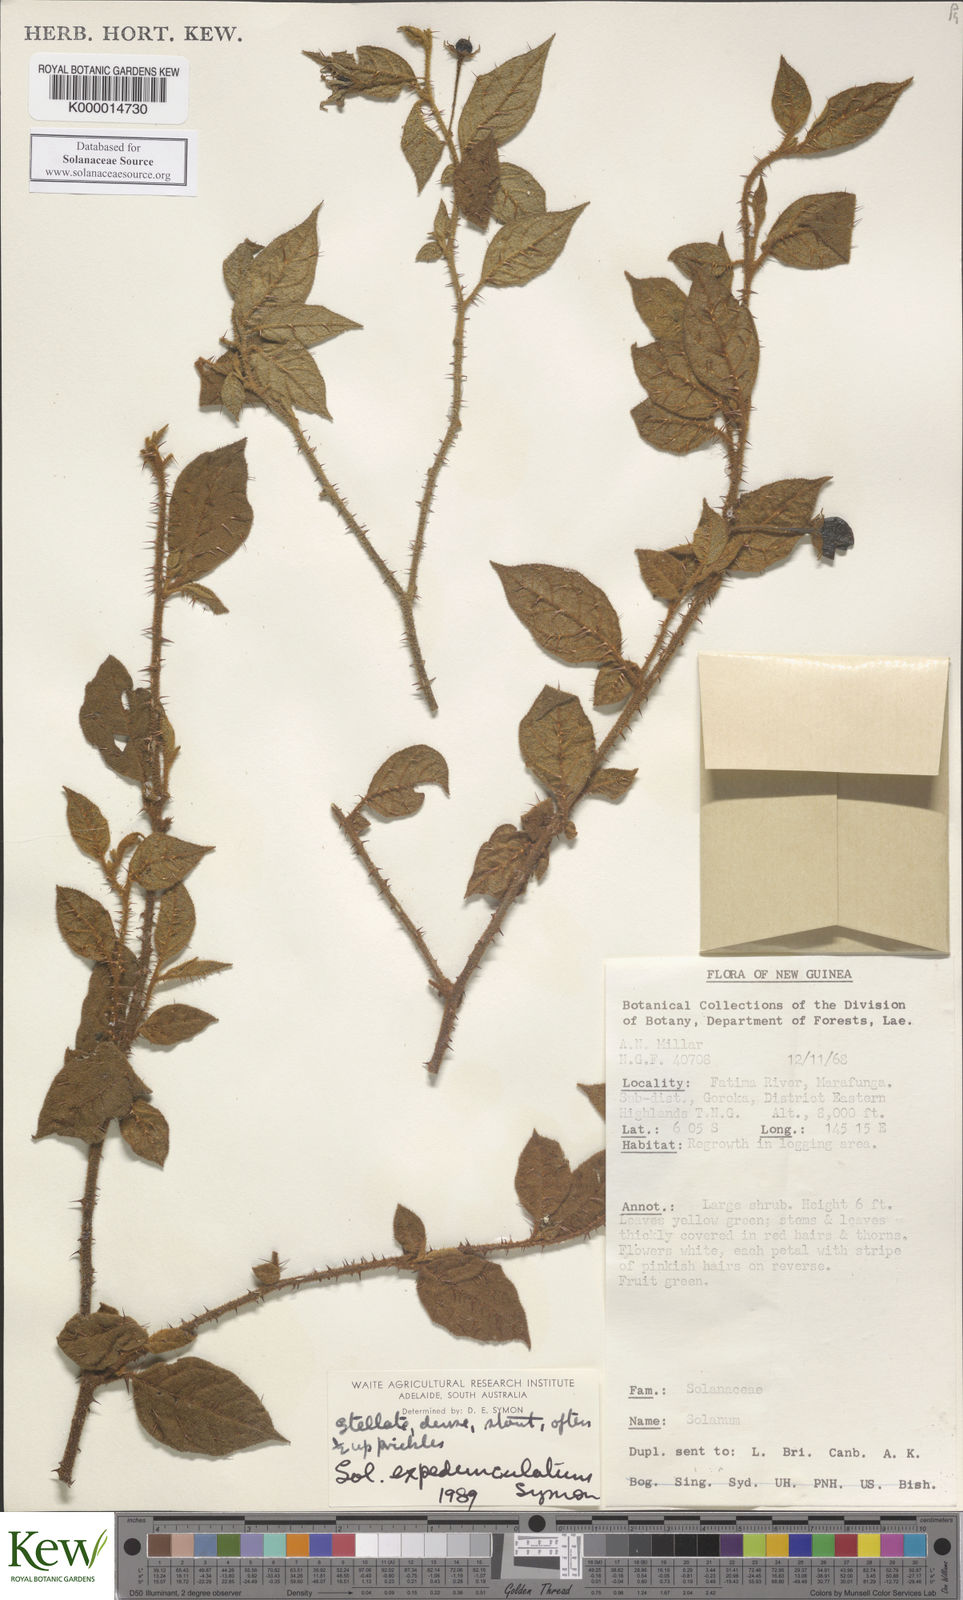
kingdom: Plantae
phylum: Tracheophyta
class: Magnoliopsida
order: Solanales
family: Solanaceae
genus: Solanum
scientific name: Solanum expedunculatum
